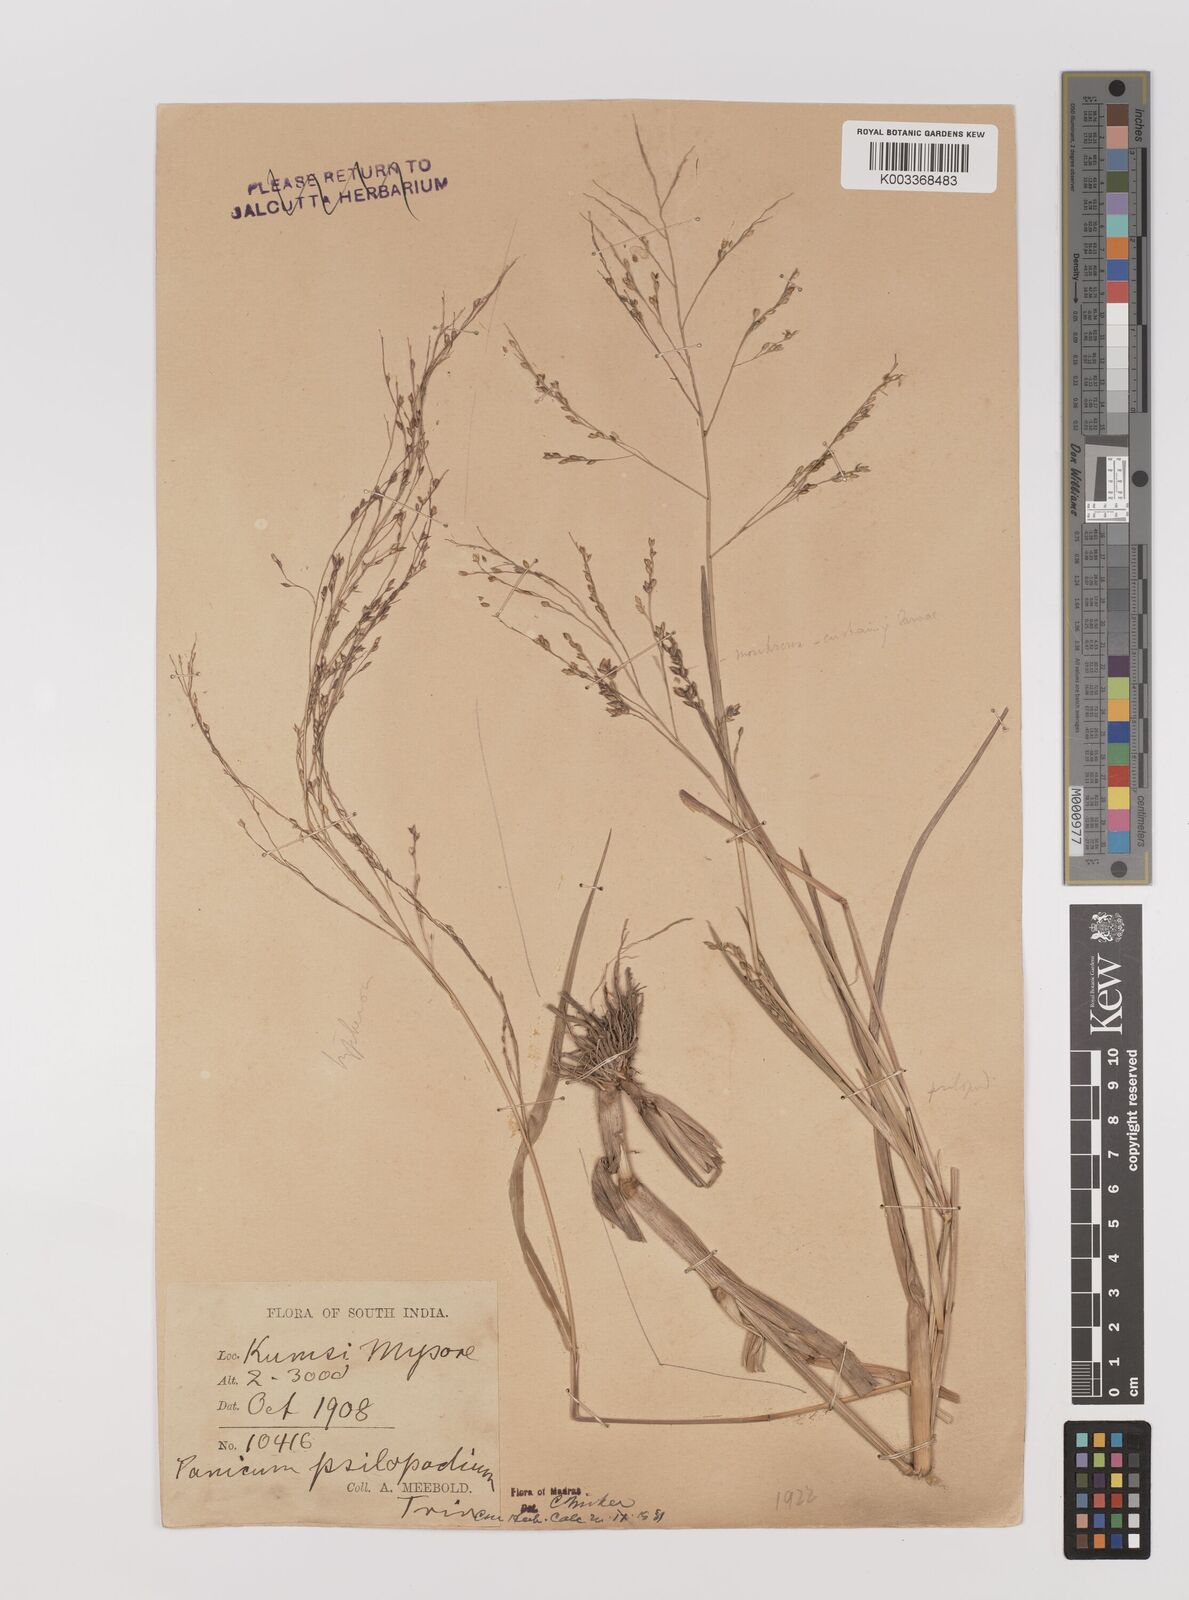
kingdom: Plantae
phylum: Tracheophyta
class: Liliopsida
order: Poales
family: Poaceae
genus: Panicum
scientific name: Panicum sumatrense
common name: Little millet
